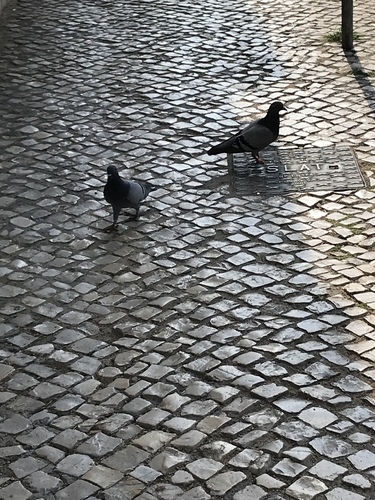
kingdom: Animalia
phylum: Chordata
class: Aves
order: Columbiformes
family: Columbidae
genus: Columba
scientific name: Columba livia
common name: Rock pigeon
